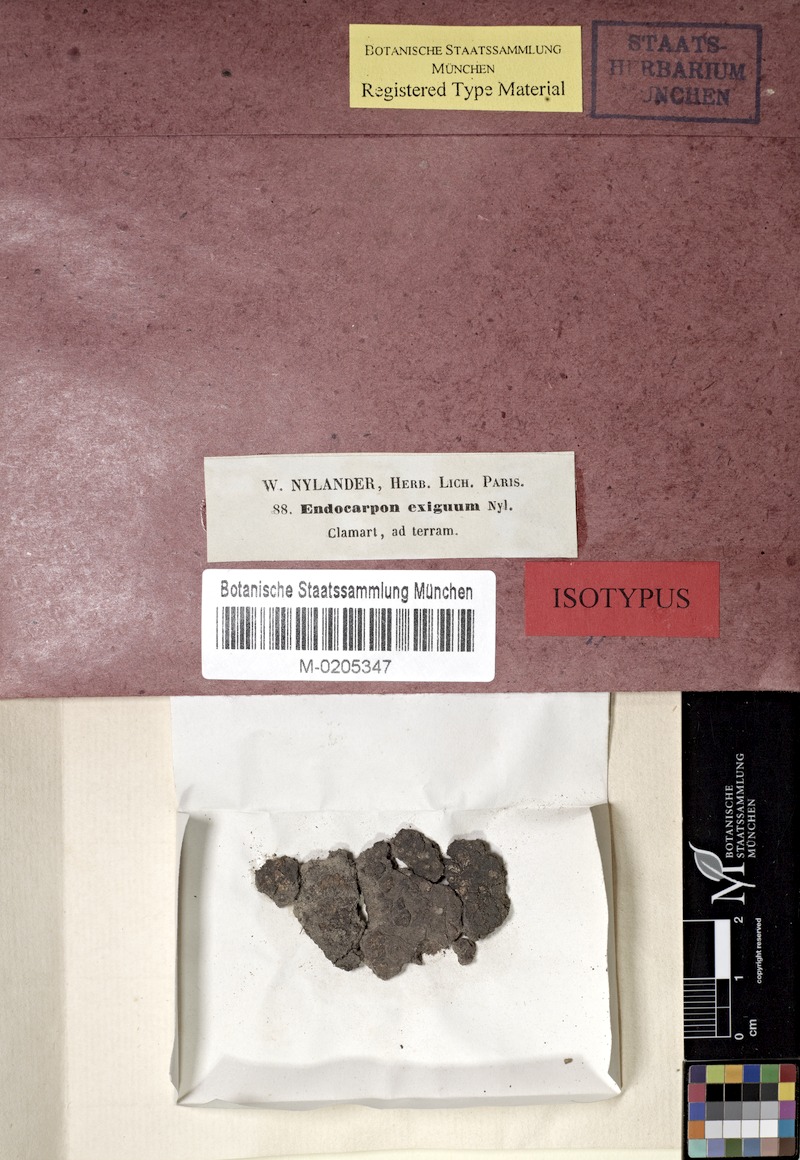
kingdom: Fungi
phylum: Ascomycota
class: Eurotiomycetes
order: Verrucariales
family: Verrucariaceae
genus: Catapyrenium
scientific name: Catapyrenium squamulosum
